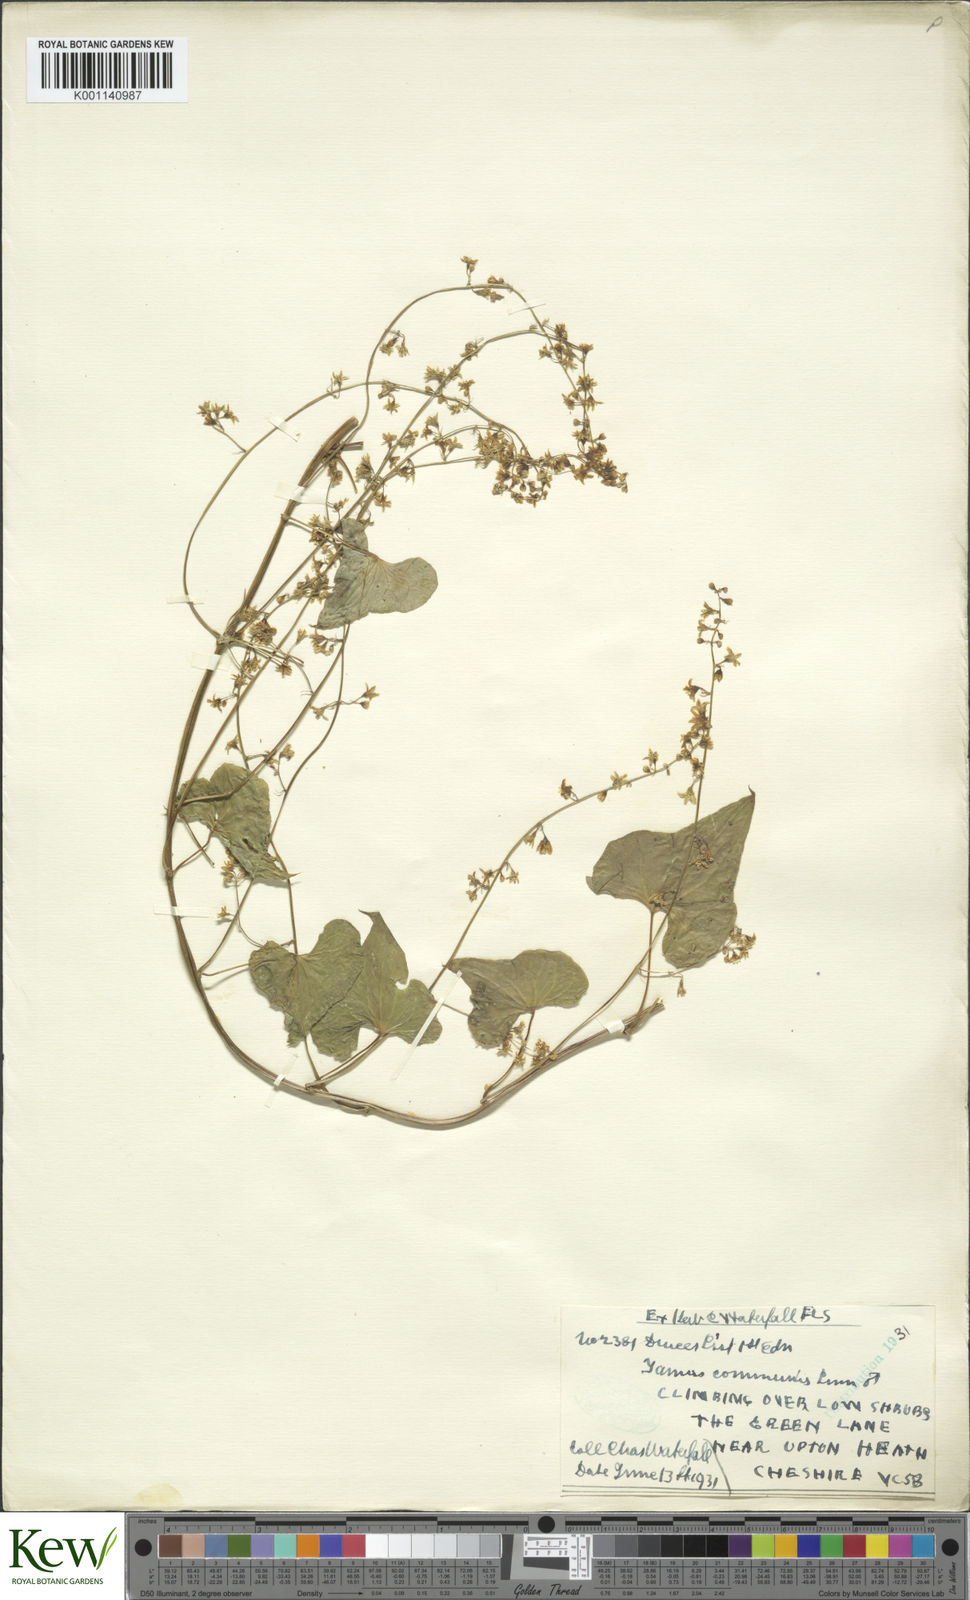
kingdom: Plantae
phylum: Tracheophyta
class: Liliopsida
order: Dioscoreales
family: Dioscoreaceae
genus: Dioscorea
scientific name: Dioscorea communis
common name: Black-bindweed
